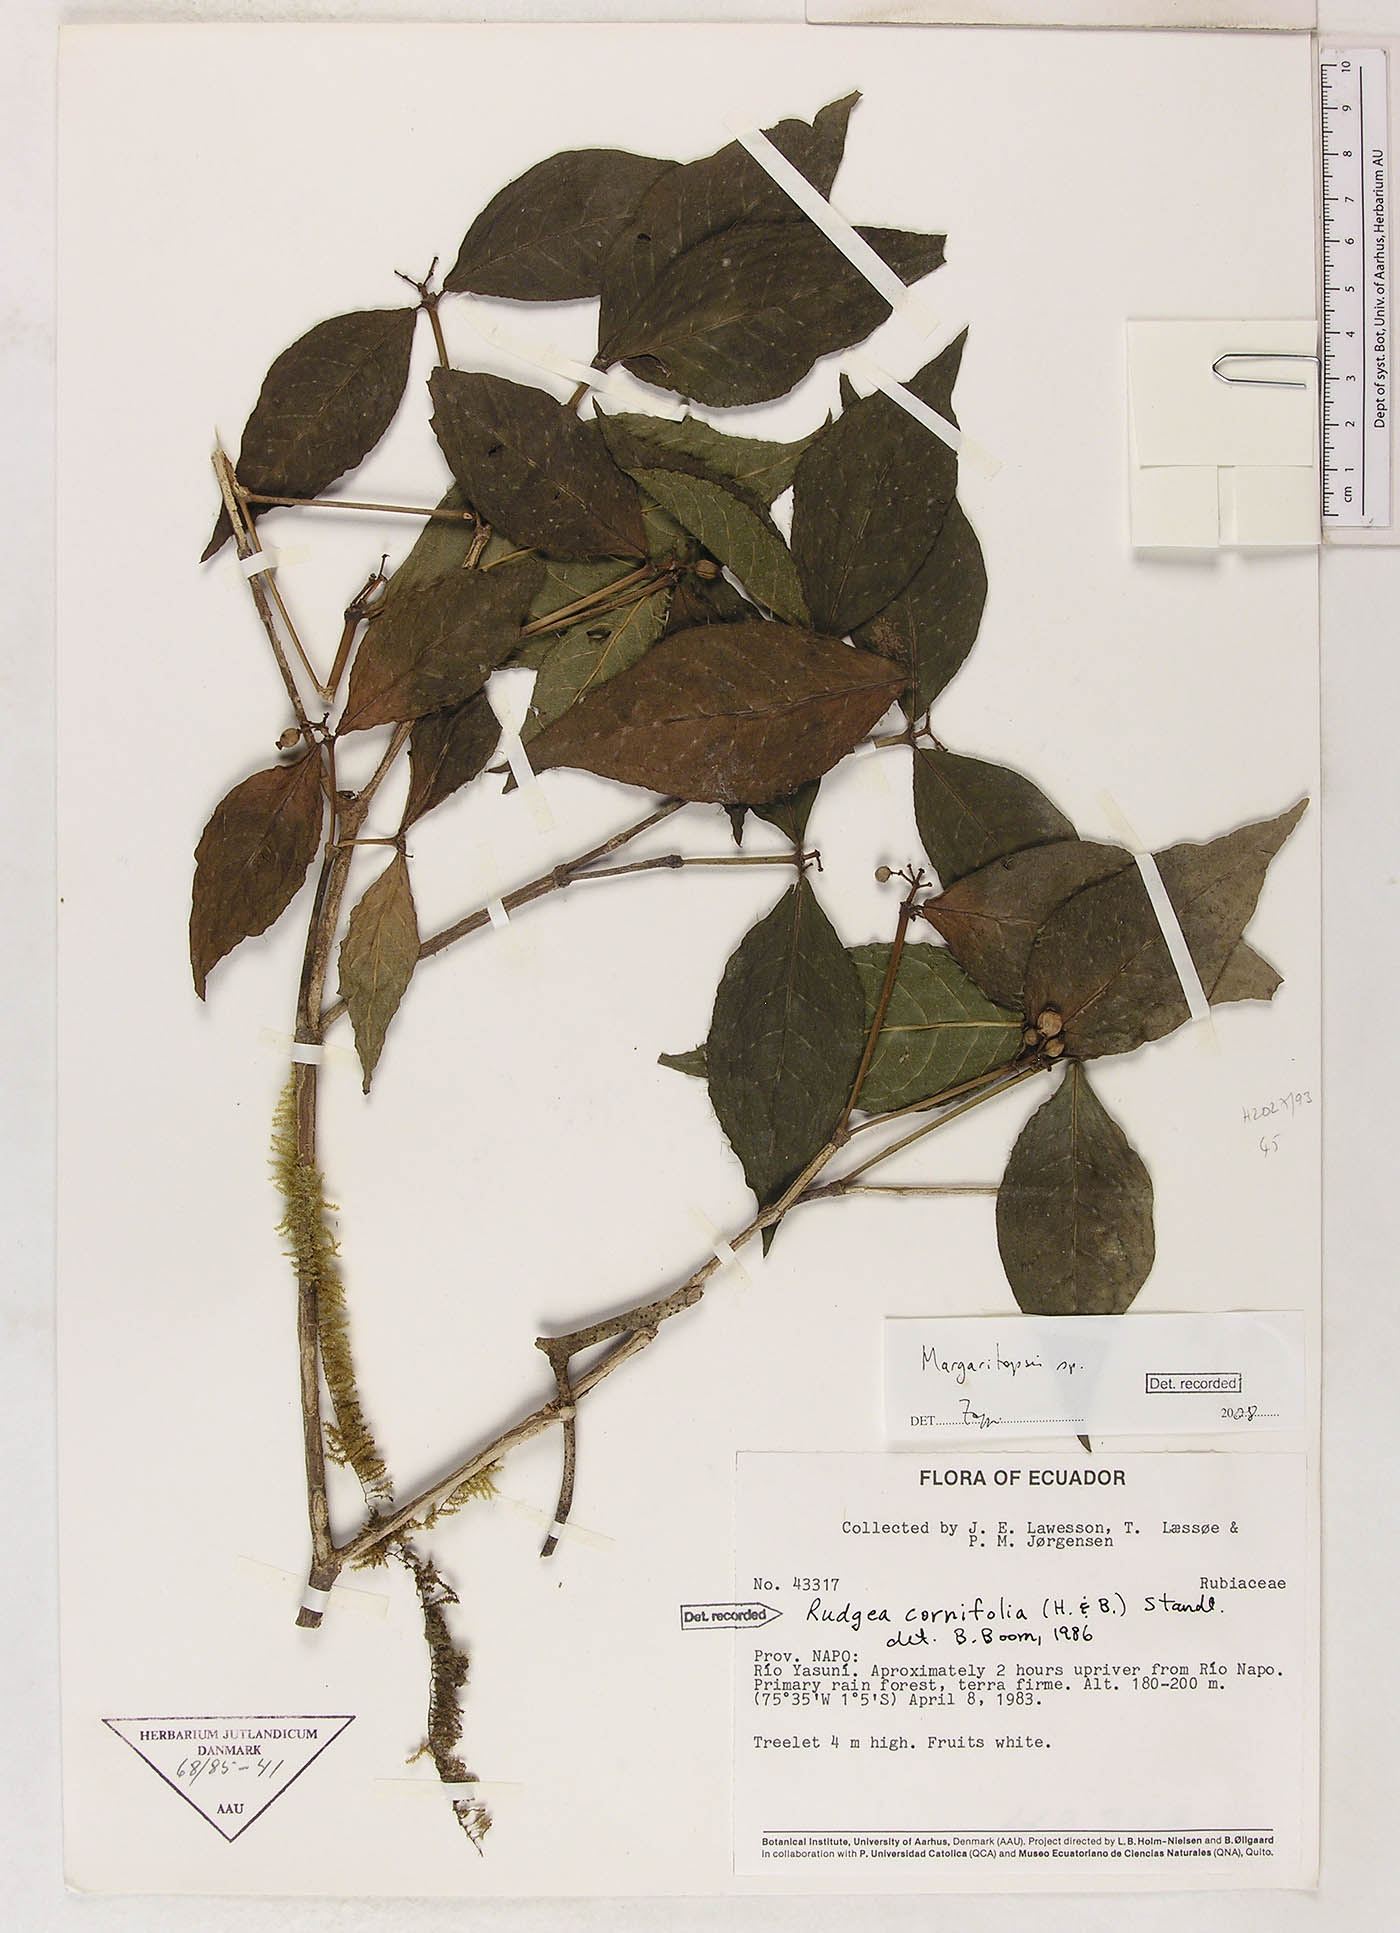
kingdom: Plantae
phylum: Tracheophyta
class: Magnoliopsida
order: Gentianales
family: Rubiaceae
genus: Eumachia
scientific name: Eumachia
